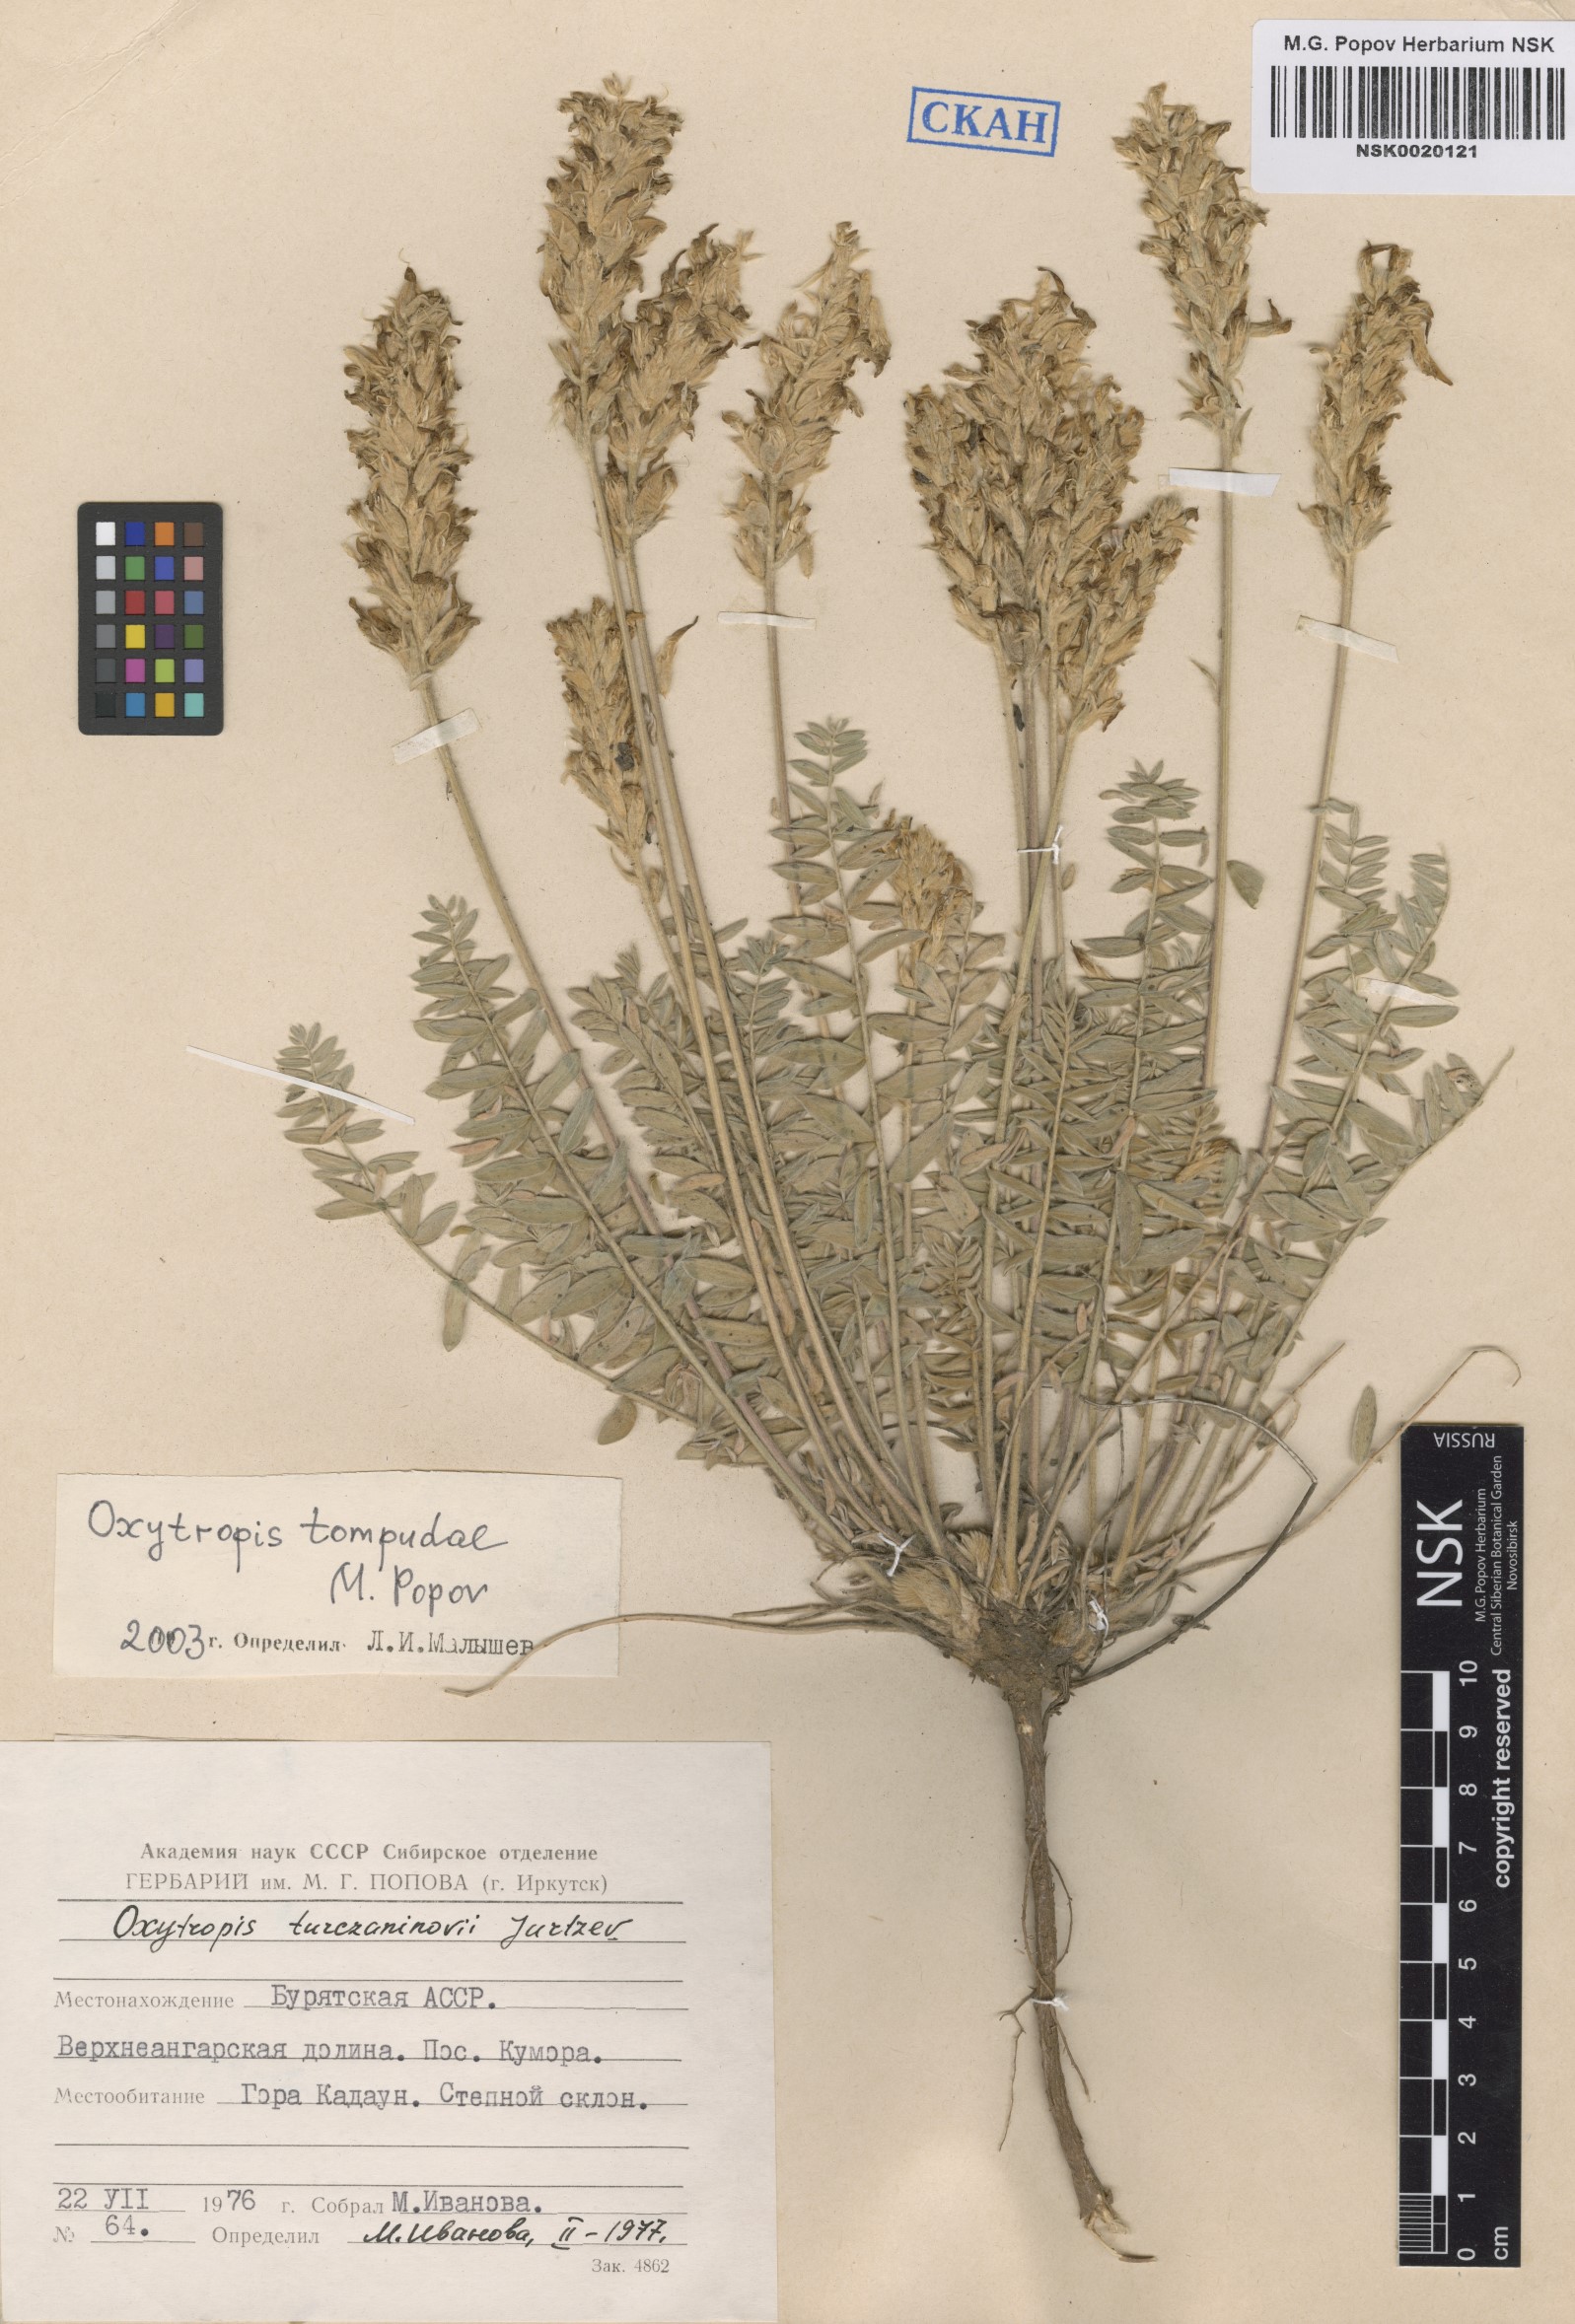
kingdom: Plantae
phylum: Tracheophyta
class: Magnoliopsida
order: Fabales
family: Fabaceae
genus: Oxytropis
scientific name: Oxytropis tompudae
